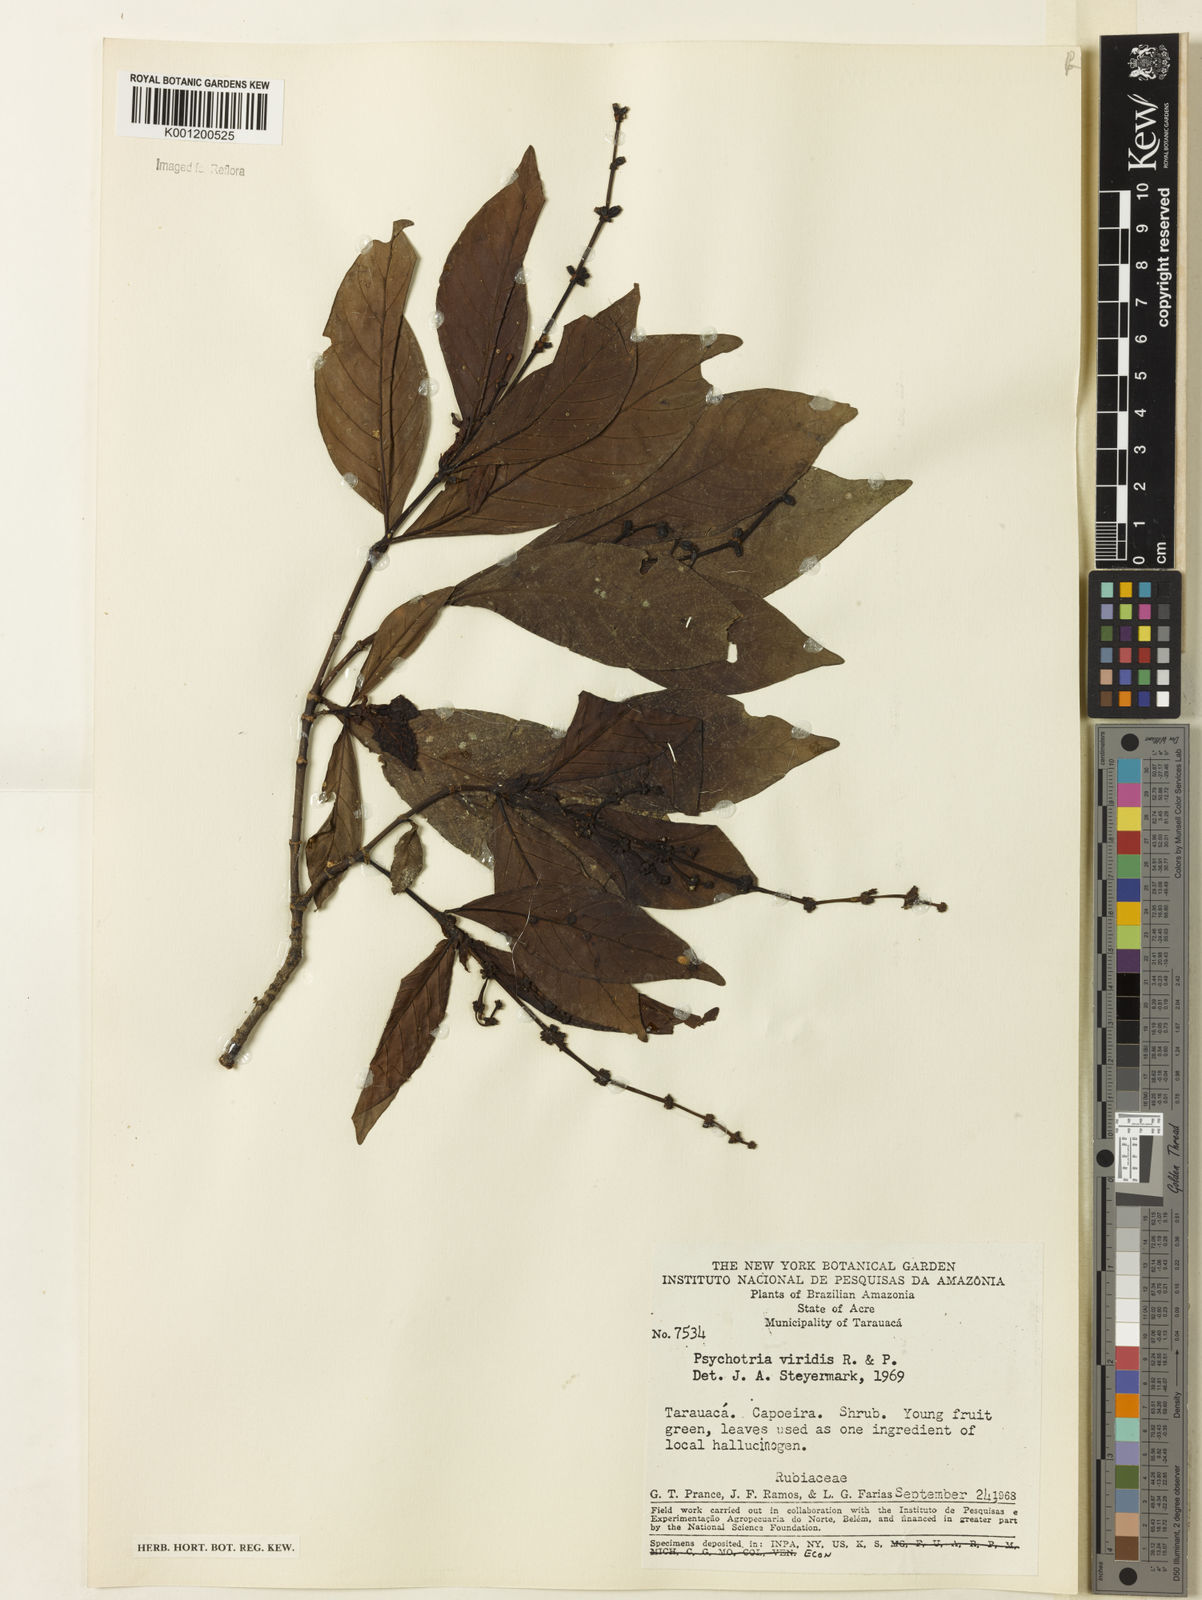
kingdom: Plantae
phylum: Tracheophyta
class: Magnoliopsida
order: Gentianales
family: Rubiaceae
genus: Psychotria
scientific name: Psychotria viridis
